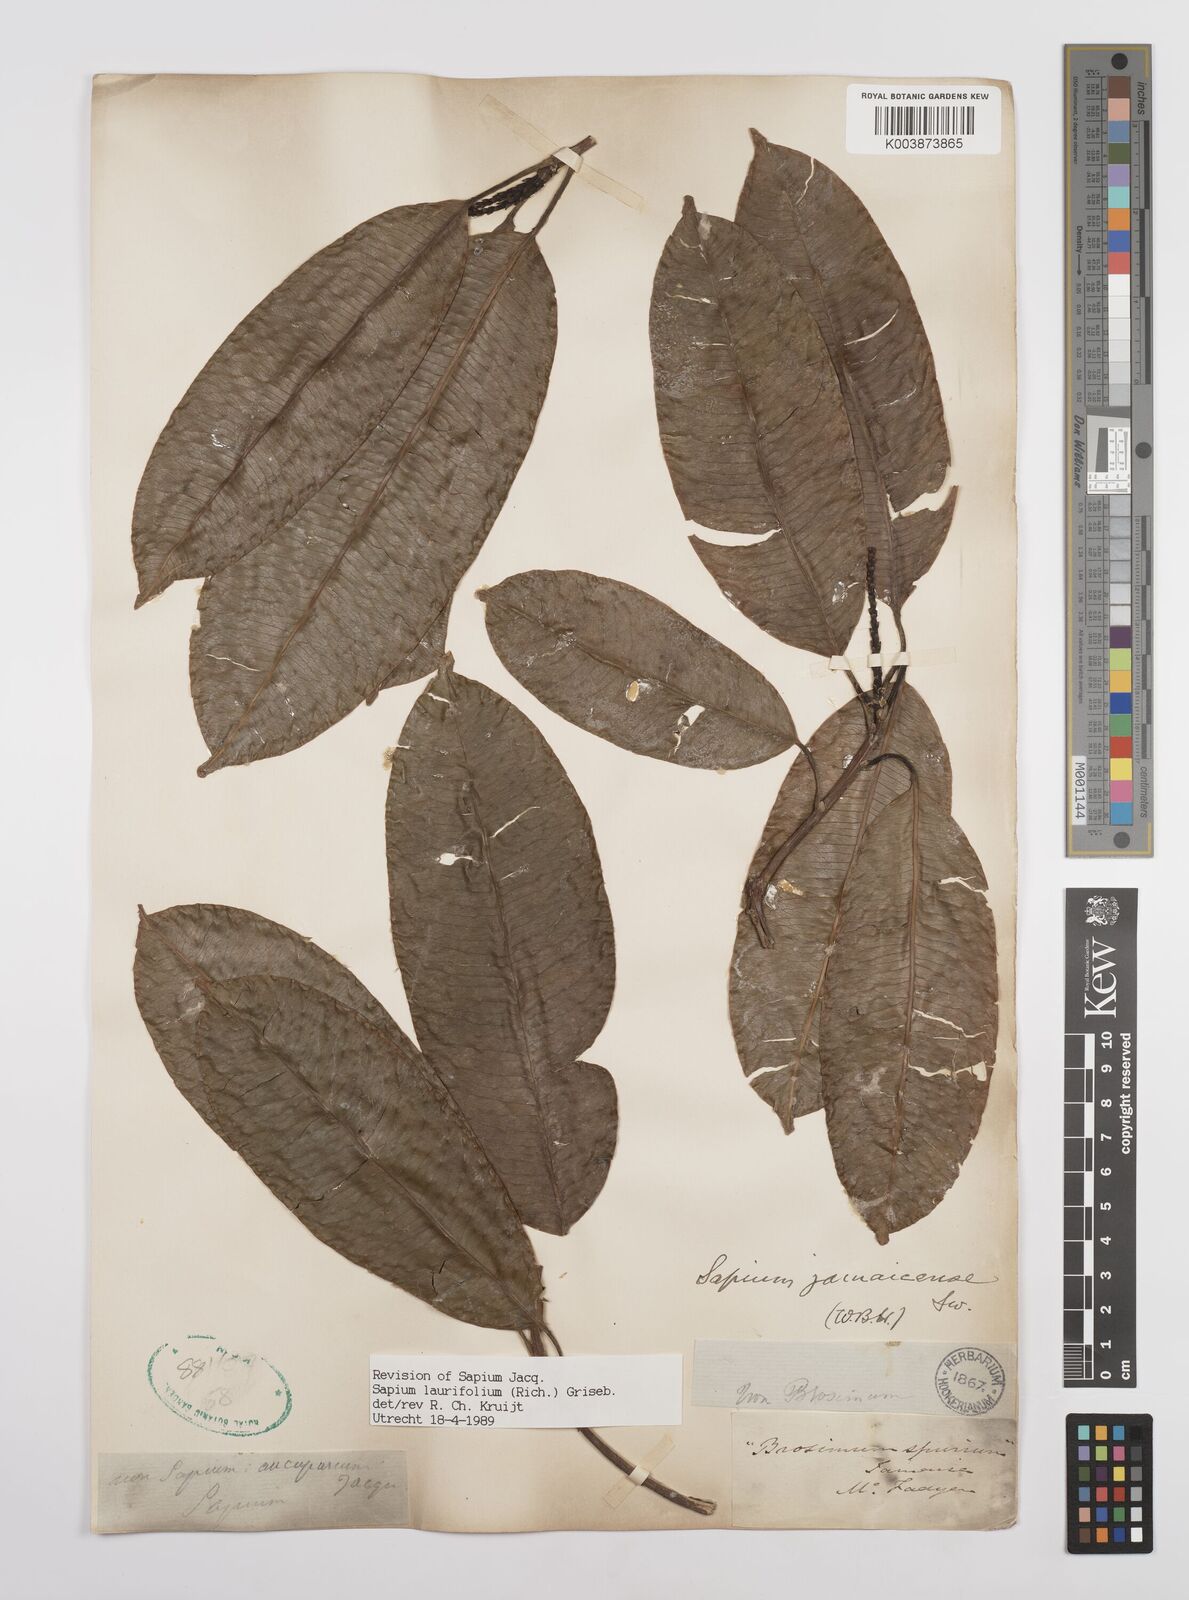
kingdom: Plantae
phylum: Tracheophyta
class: Magnoliopsida
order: Malpighiales
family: Euphorbiaceae
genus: Sapium
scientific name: Sapium glandulosum
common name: Milktree
